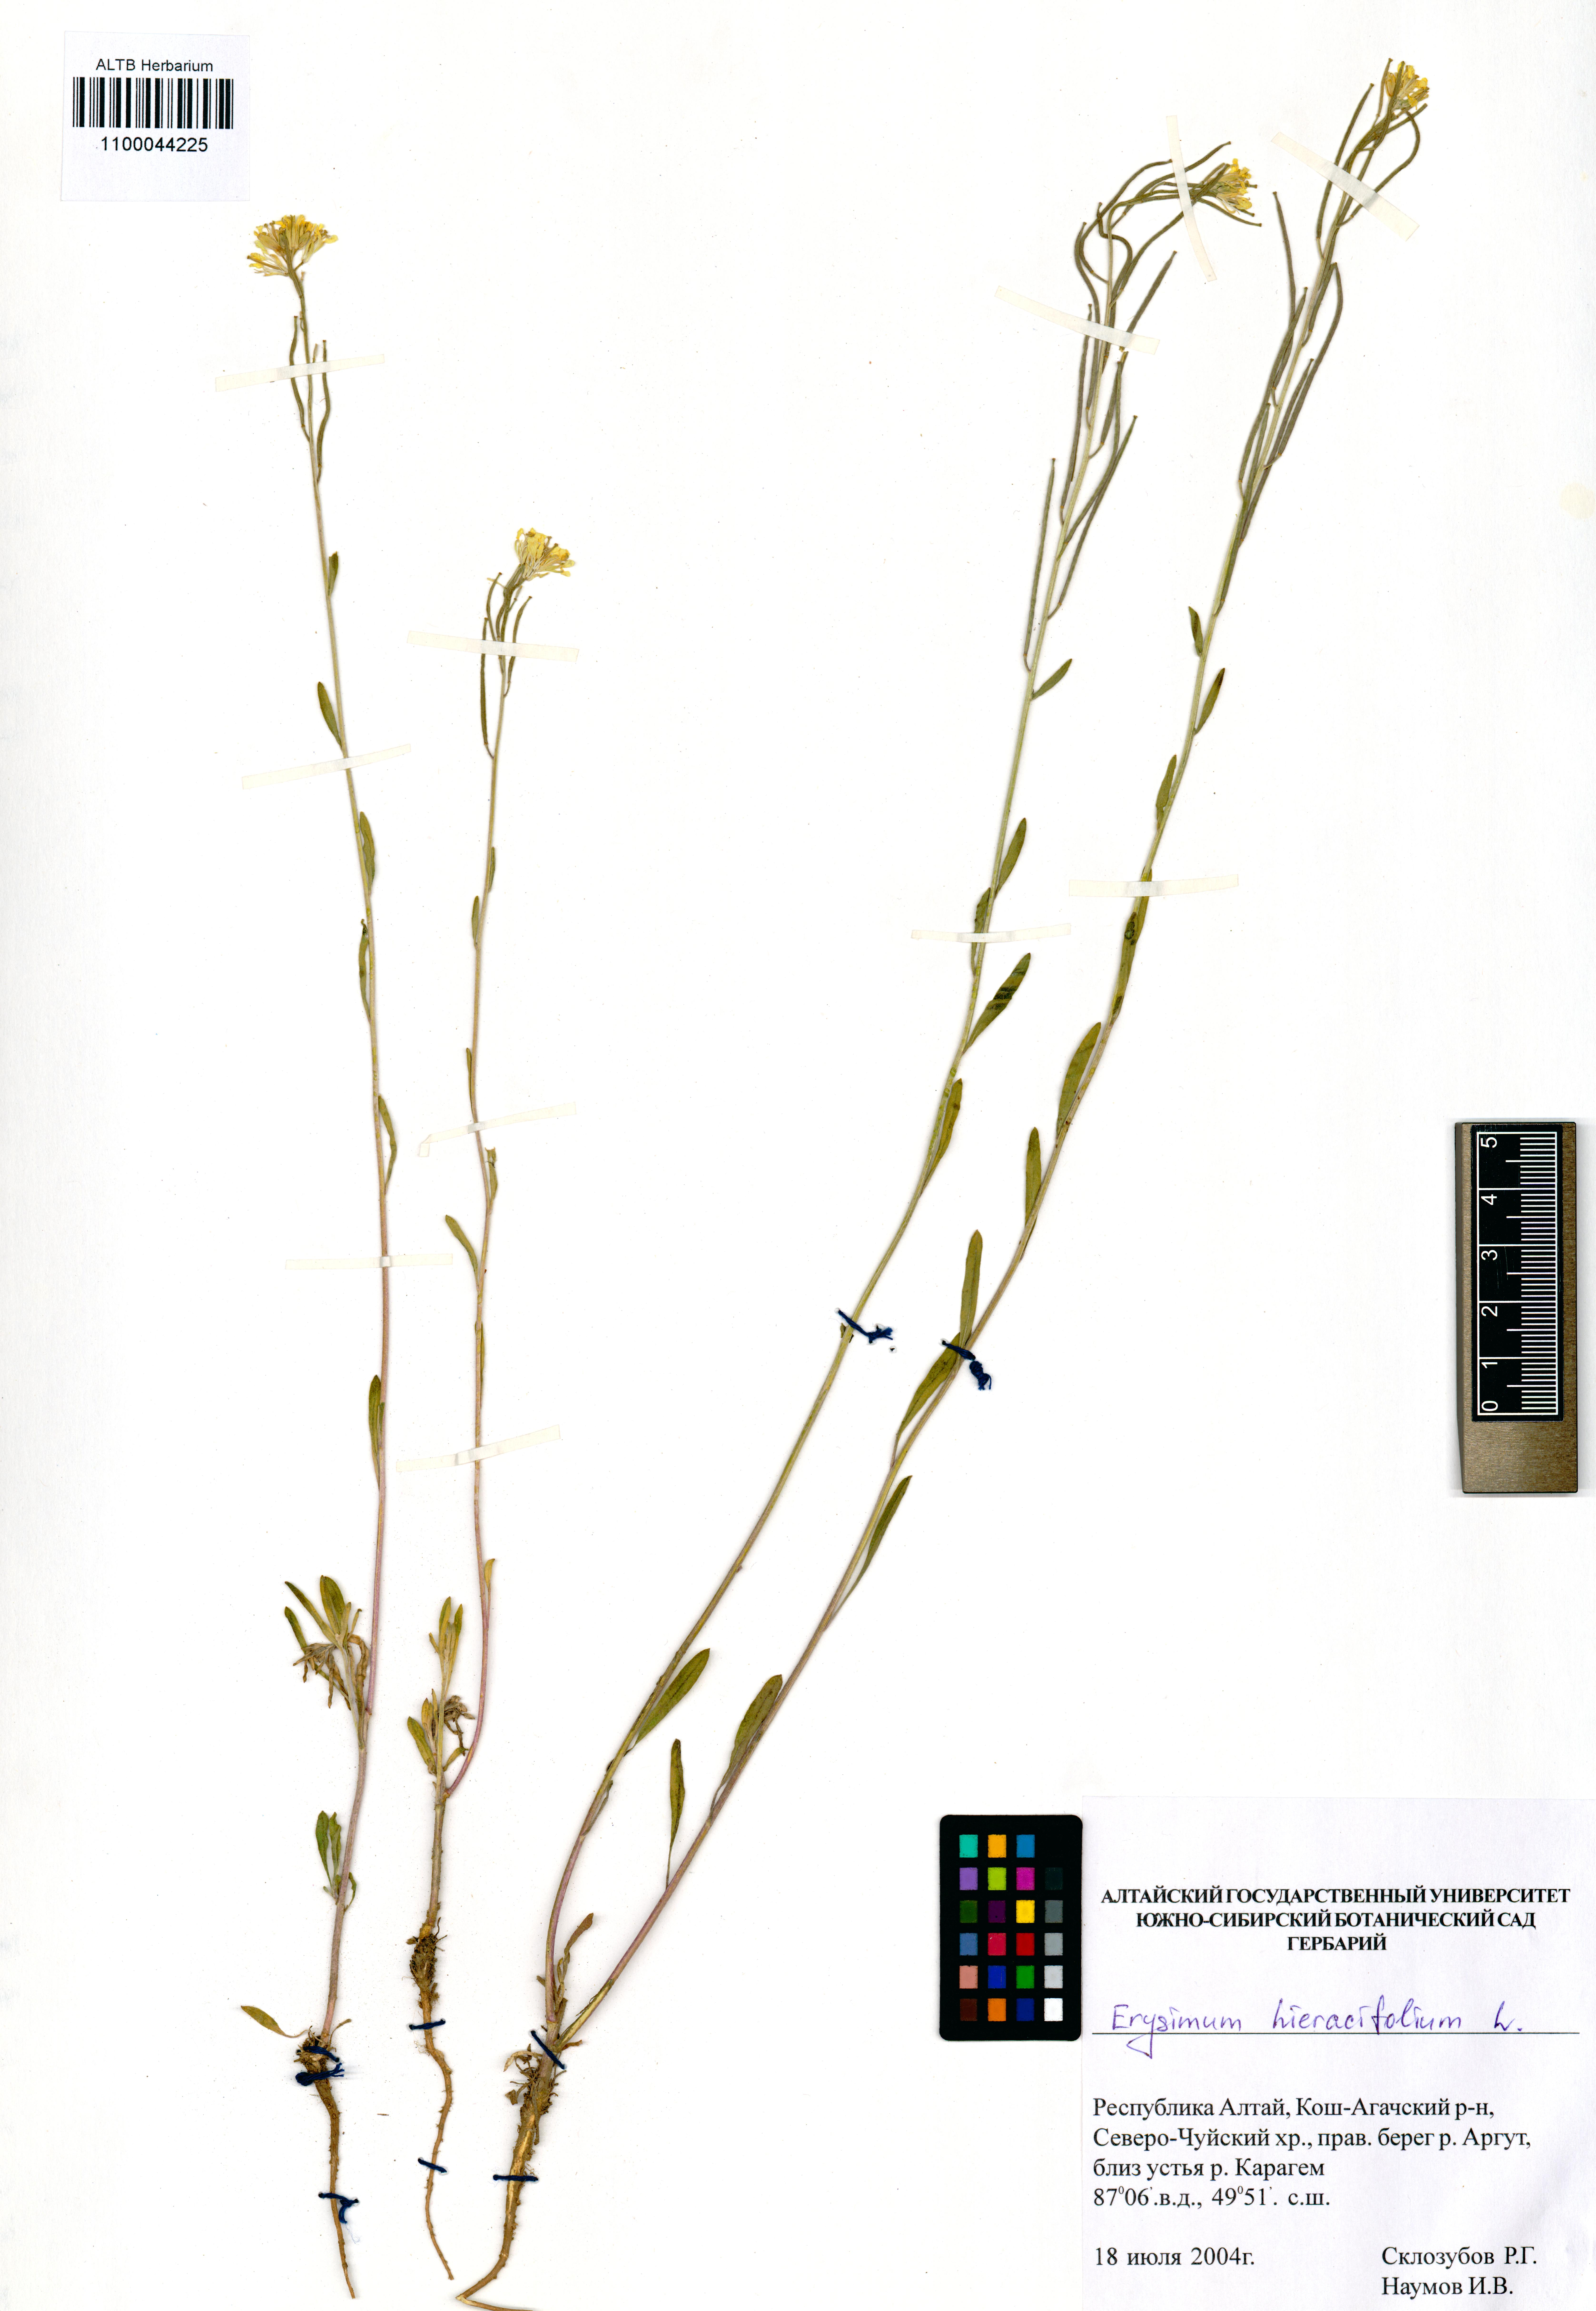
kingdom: Plantae
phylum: Tracheophyta
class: Magnoliopsida
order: Brassicales
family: Brassicaceae
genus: Erysimum
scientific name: Erysimum hieraciifolium
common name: European wallflower
